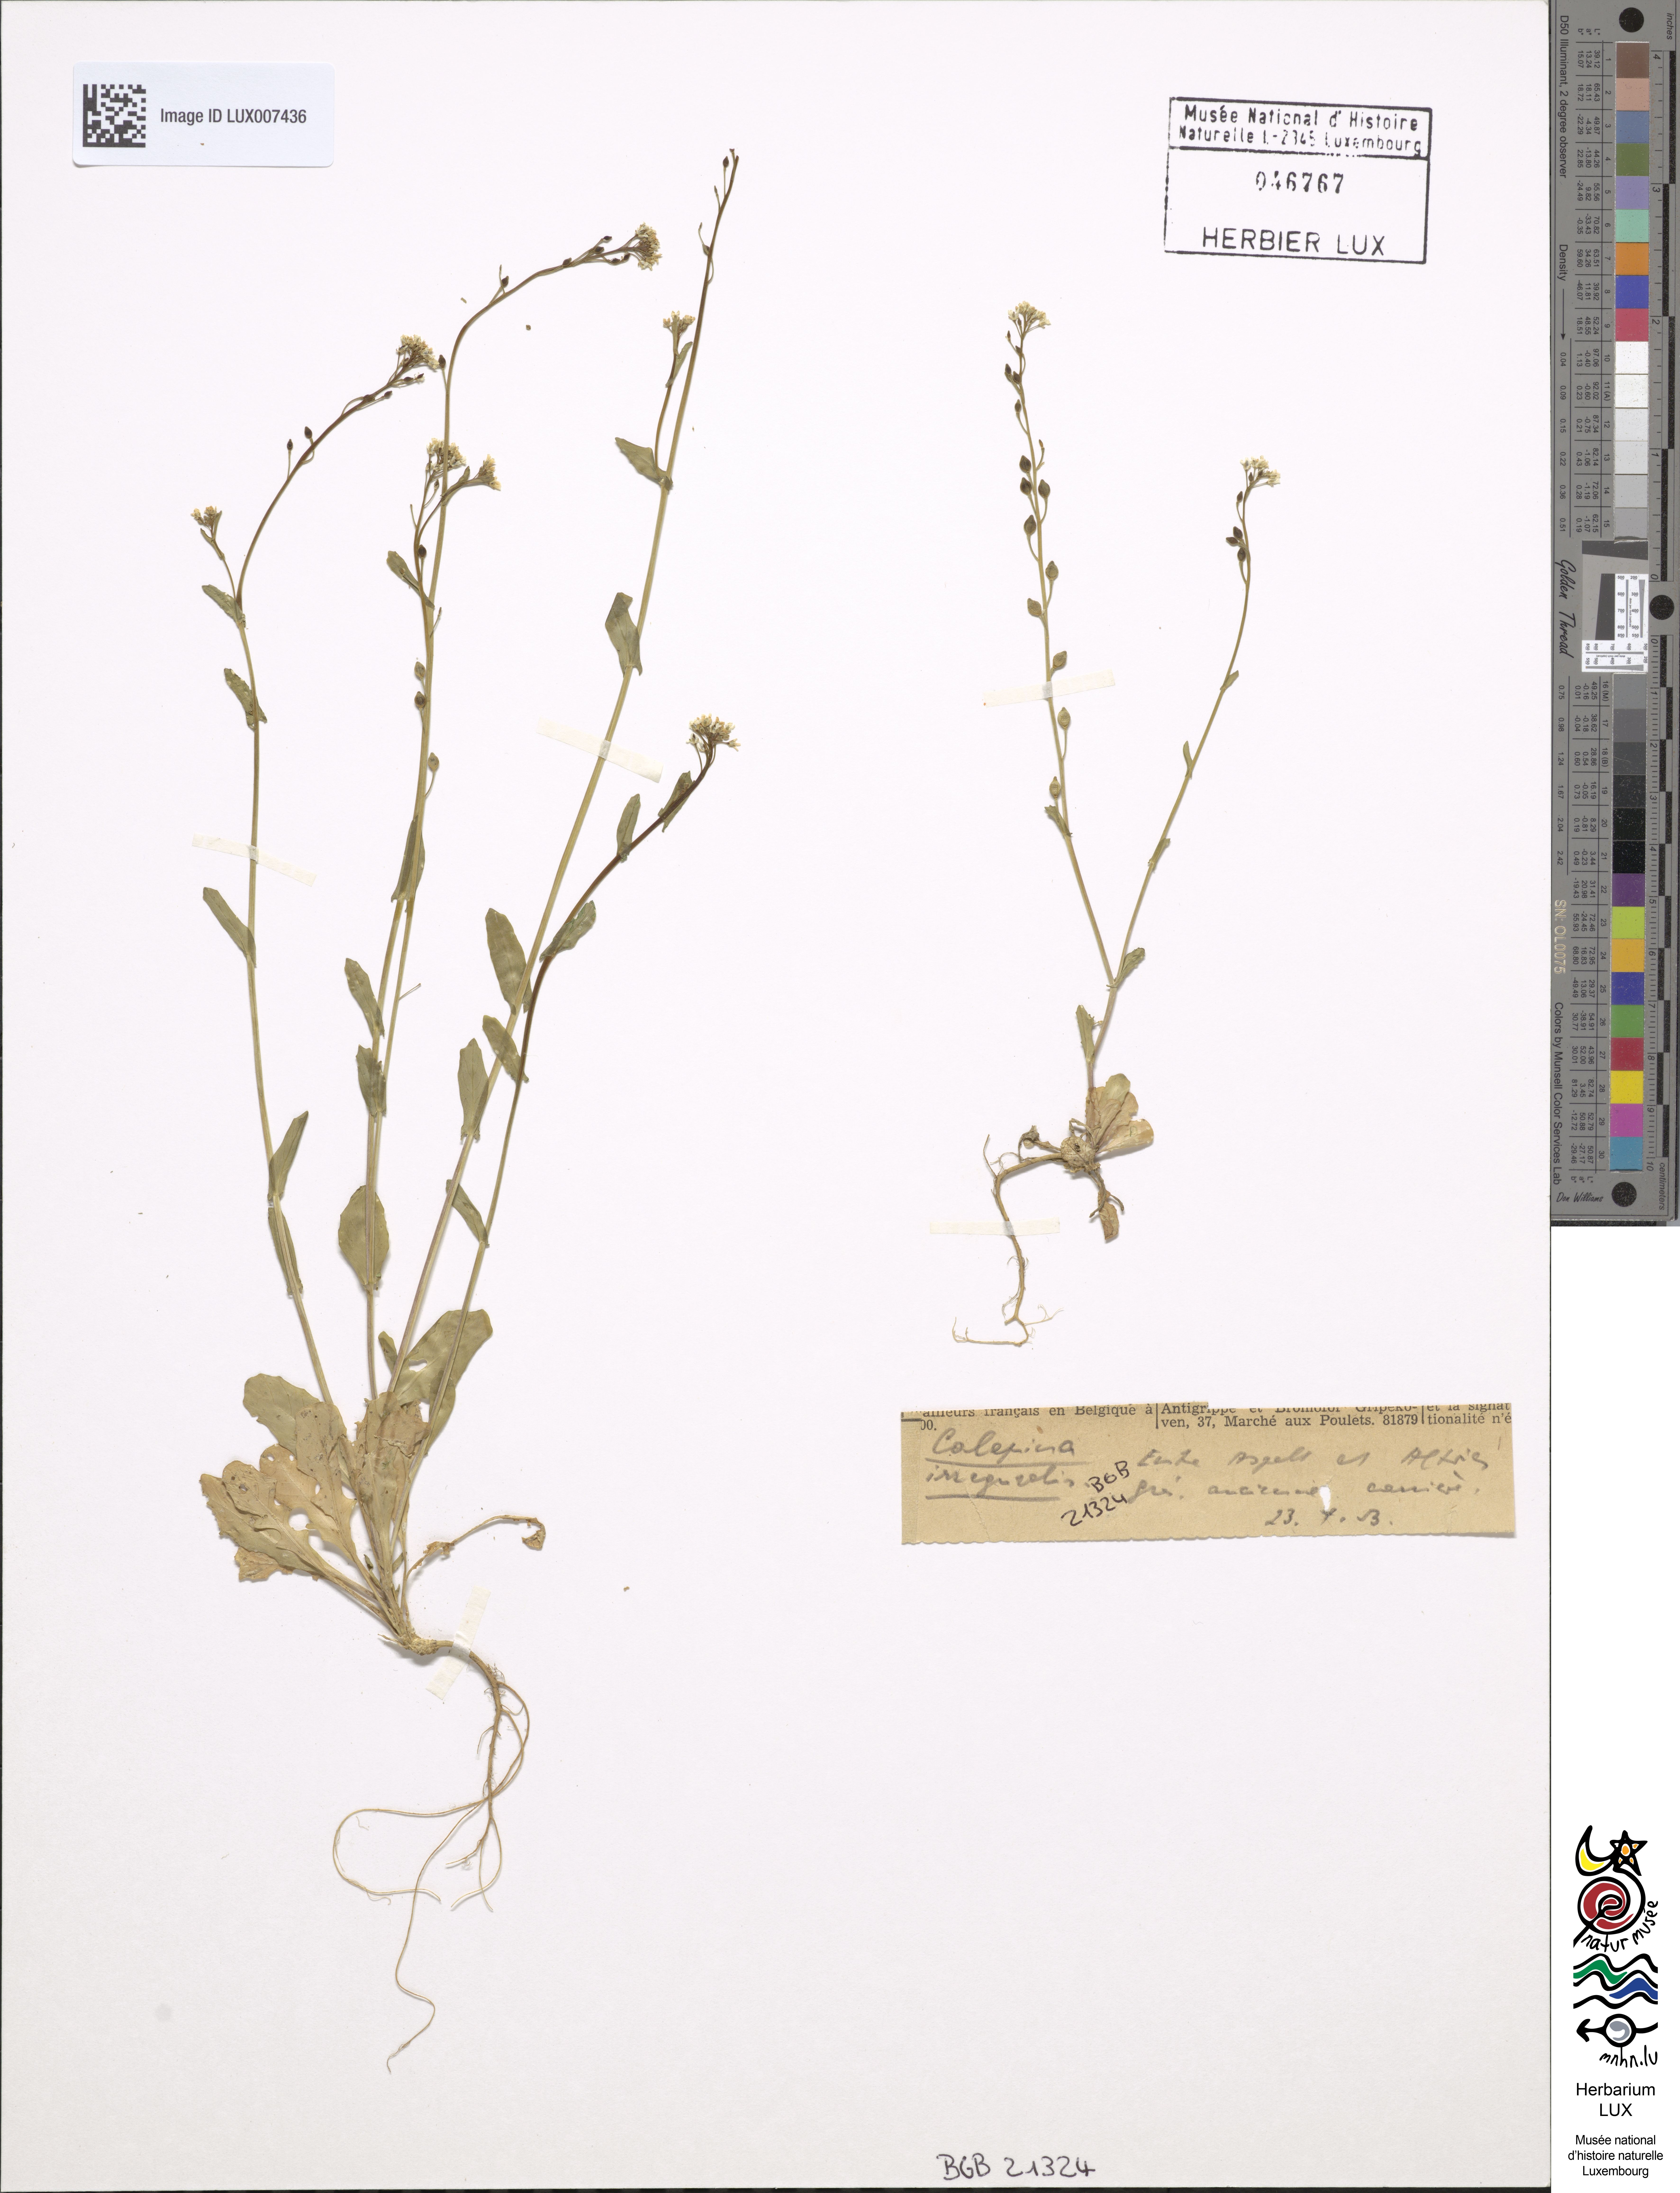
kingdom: Plantae
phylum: Tracheophyta
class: Magnoliopsida
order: Brassicales
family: Brassicaceae
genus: Calepina
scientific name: Calepina irregularis
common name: White ballmustard
